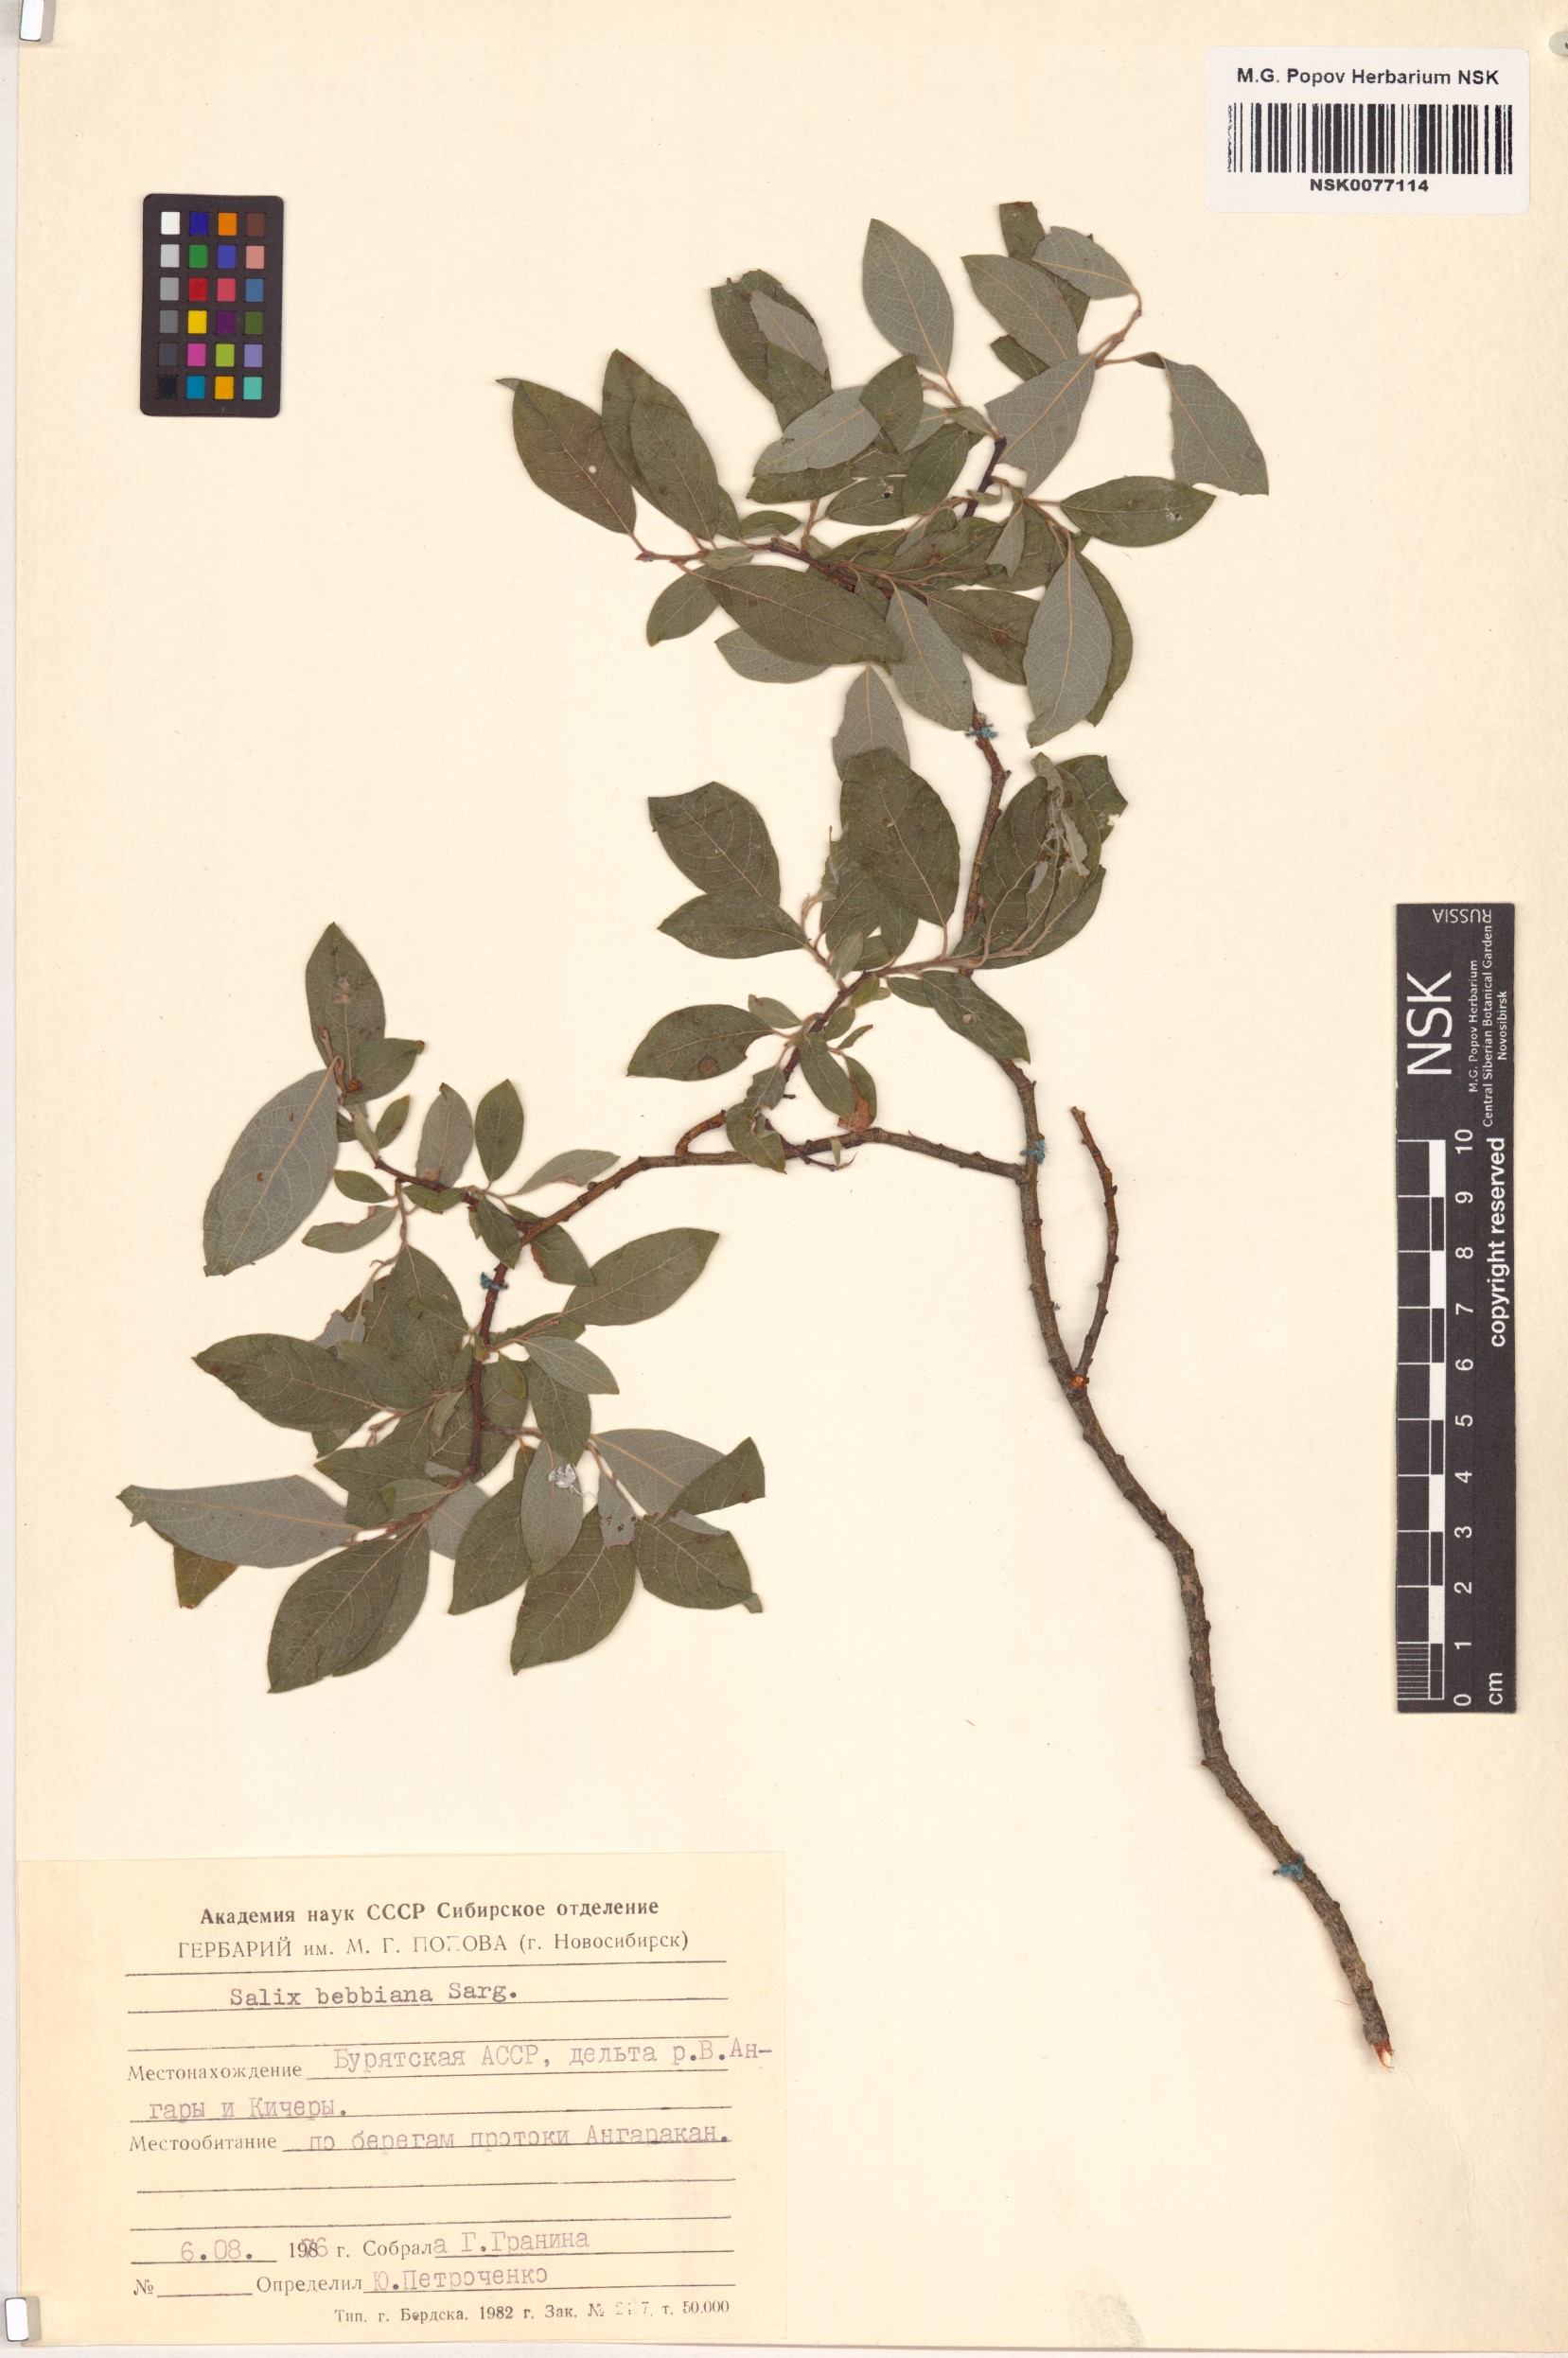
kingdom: Plantae
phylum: Tracheophyta
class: Magnoliopsida
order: Malpighiales
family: Salicaceae
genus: Salix
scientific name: Salix bebbiana
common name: Bebb's willow
